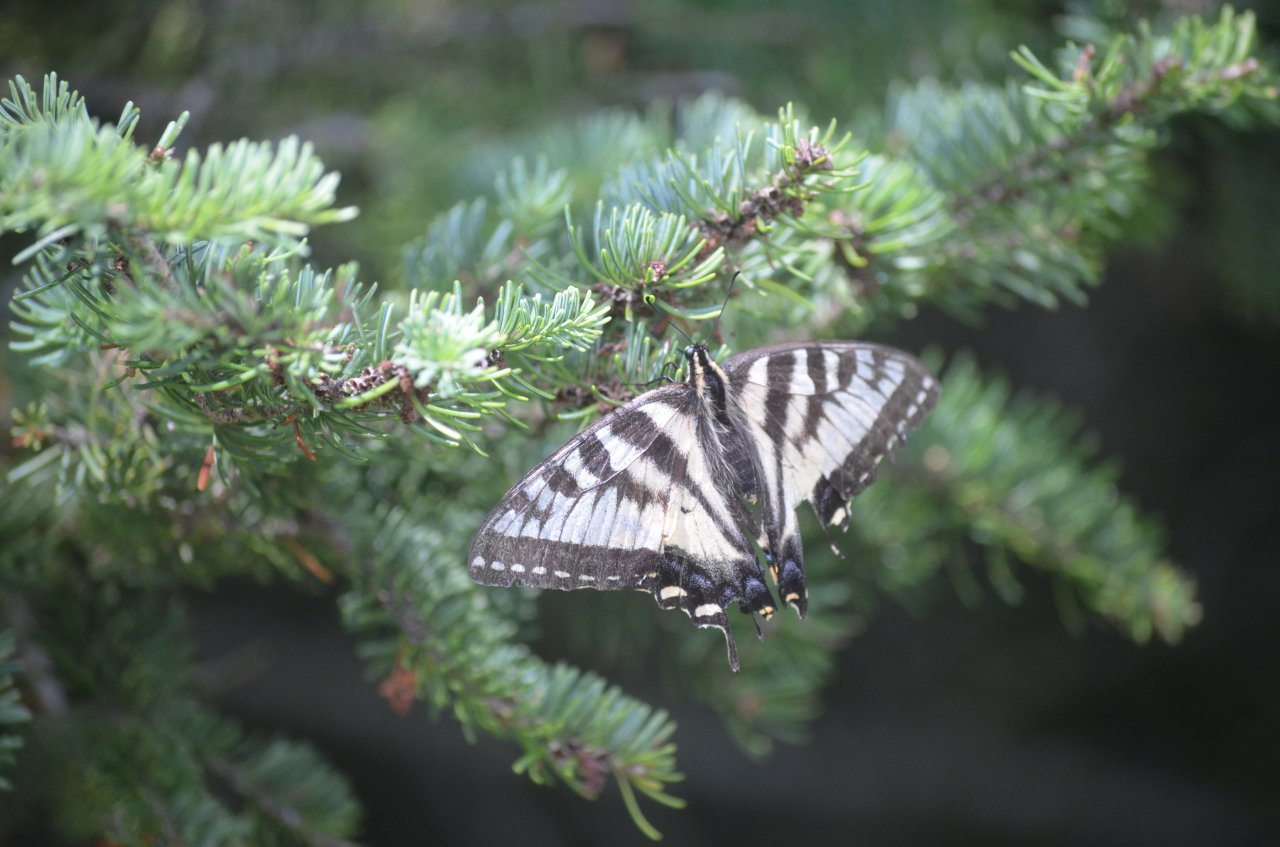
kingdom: Animalia
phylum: Arthropoda
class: Insecta
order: Lepidoptera
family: Papilionidae
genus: Pterourus
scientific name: Pterourus canadensis
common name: Canadian Tiger Swallowtail
